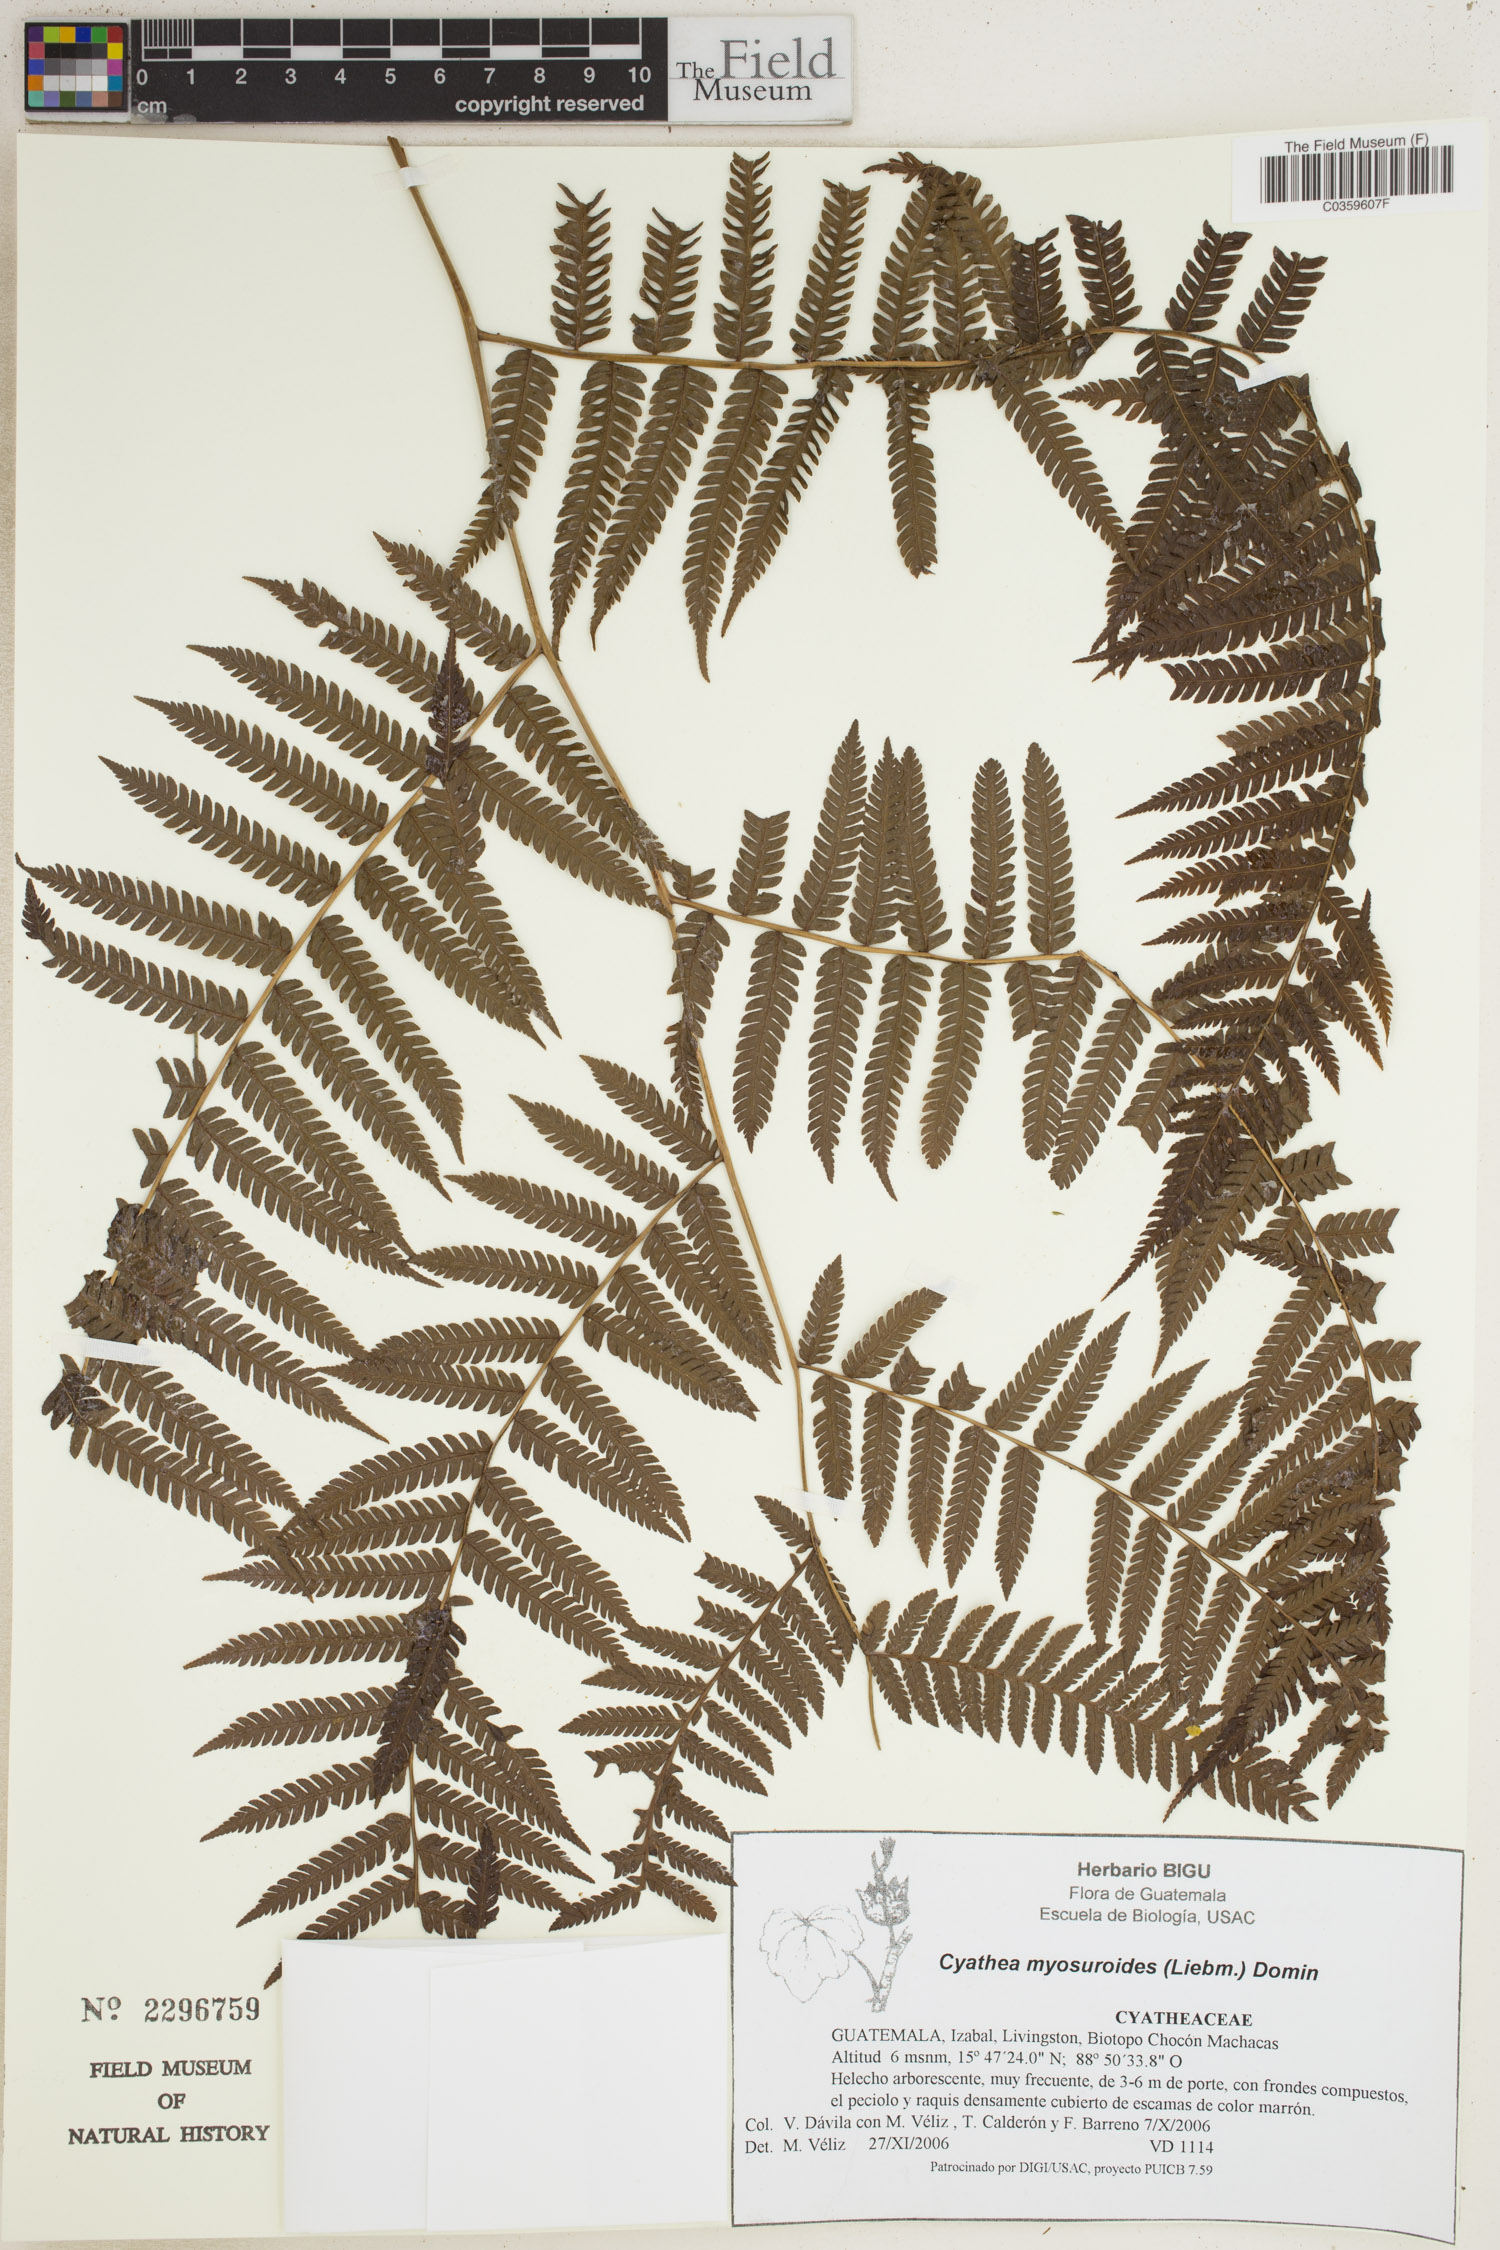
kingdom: Plantae
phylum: Tracheophyta
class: Polypodiopsida
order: Cyatheales
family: Cyatheaceae
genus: Sphaeropteris
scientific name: Sphaeropteris myosuroides
